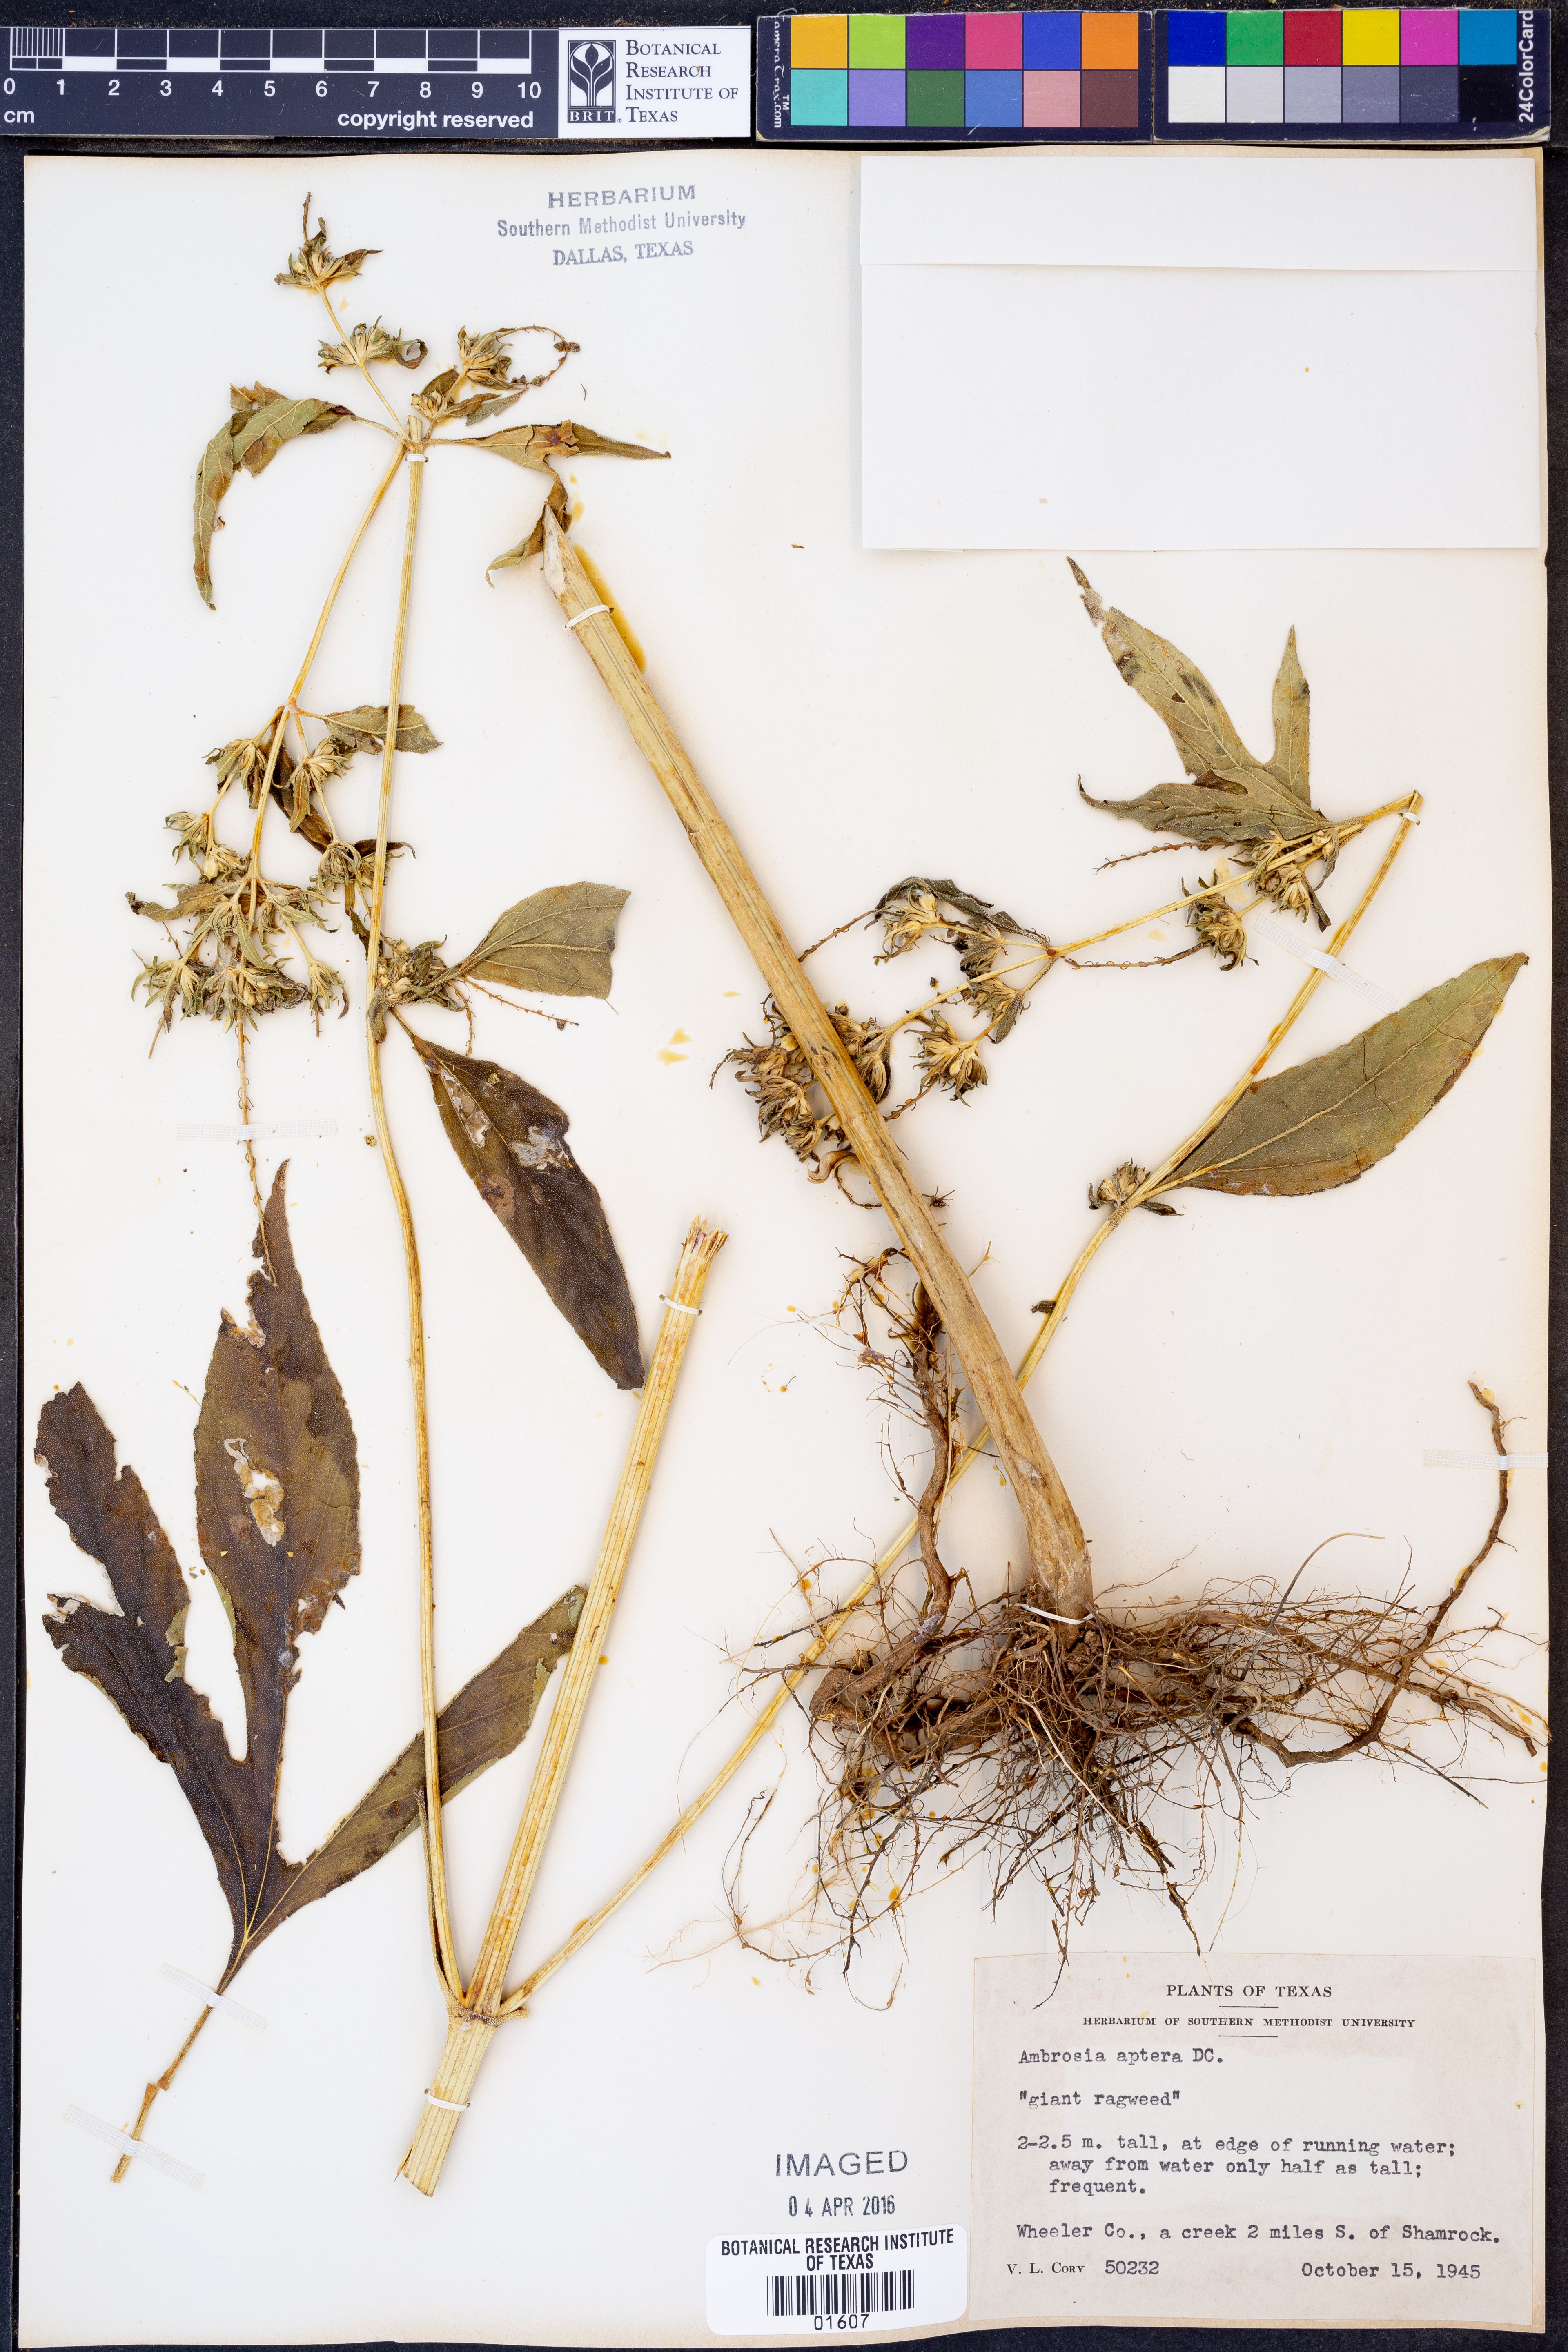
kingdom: Plantae
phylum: Tracheophyta
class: Magnoliopsida
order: Asterales
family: Asteraceae
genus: Ambrosia
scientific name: Ambrosia trifida
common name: Giant ragweed
